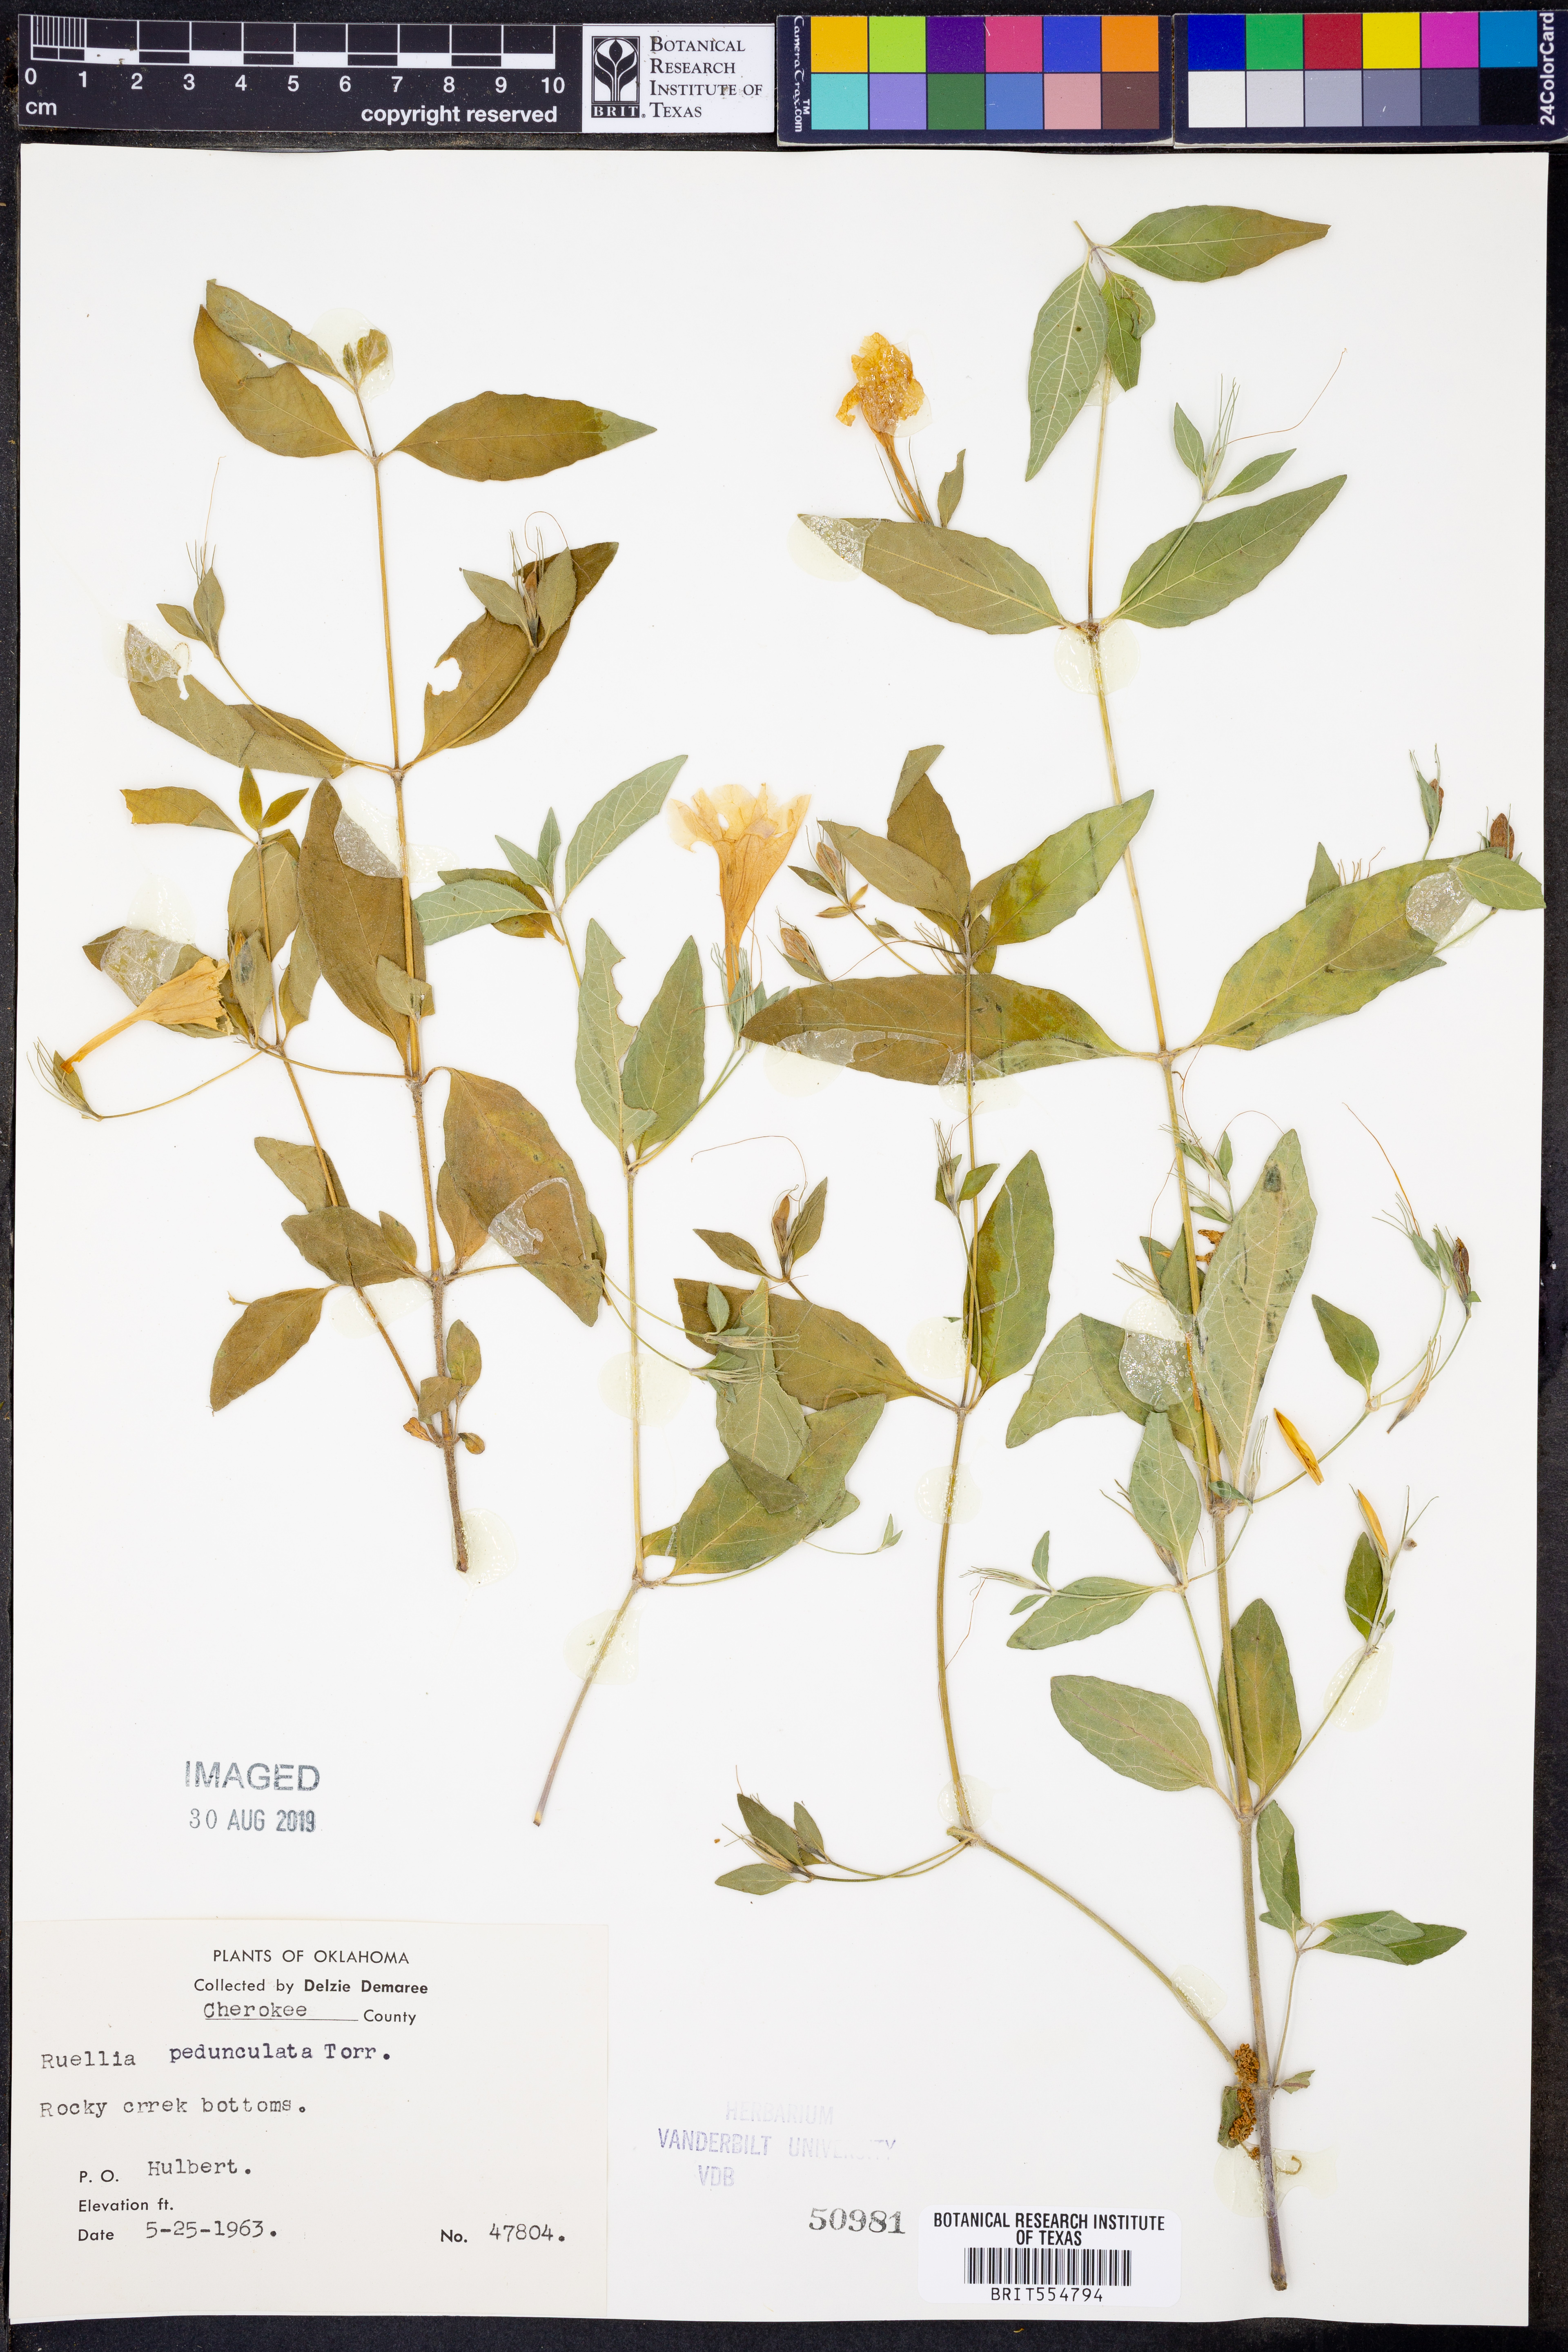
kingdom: Plantae
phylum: Tracheophyta
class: Magnoliopsida
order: Lamiales
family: Acanthaceae
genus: Ruellia
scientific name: Ruellia pedunculata
